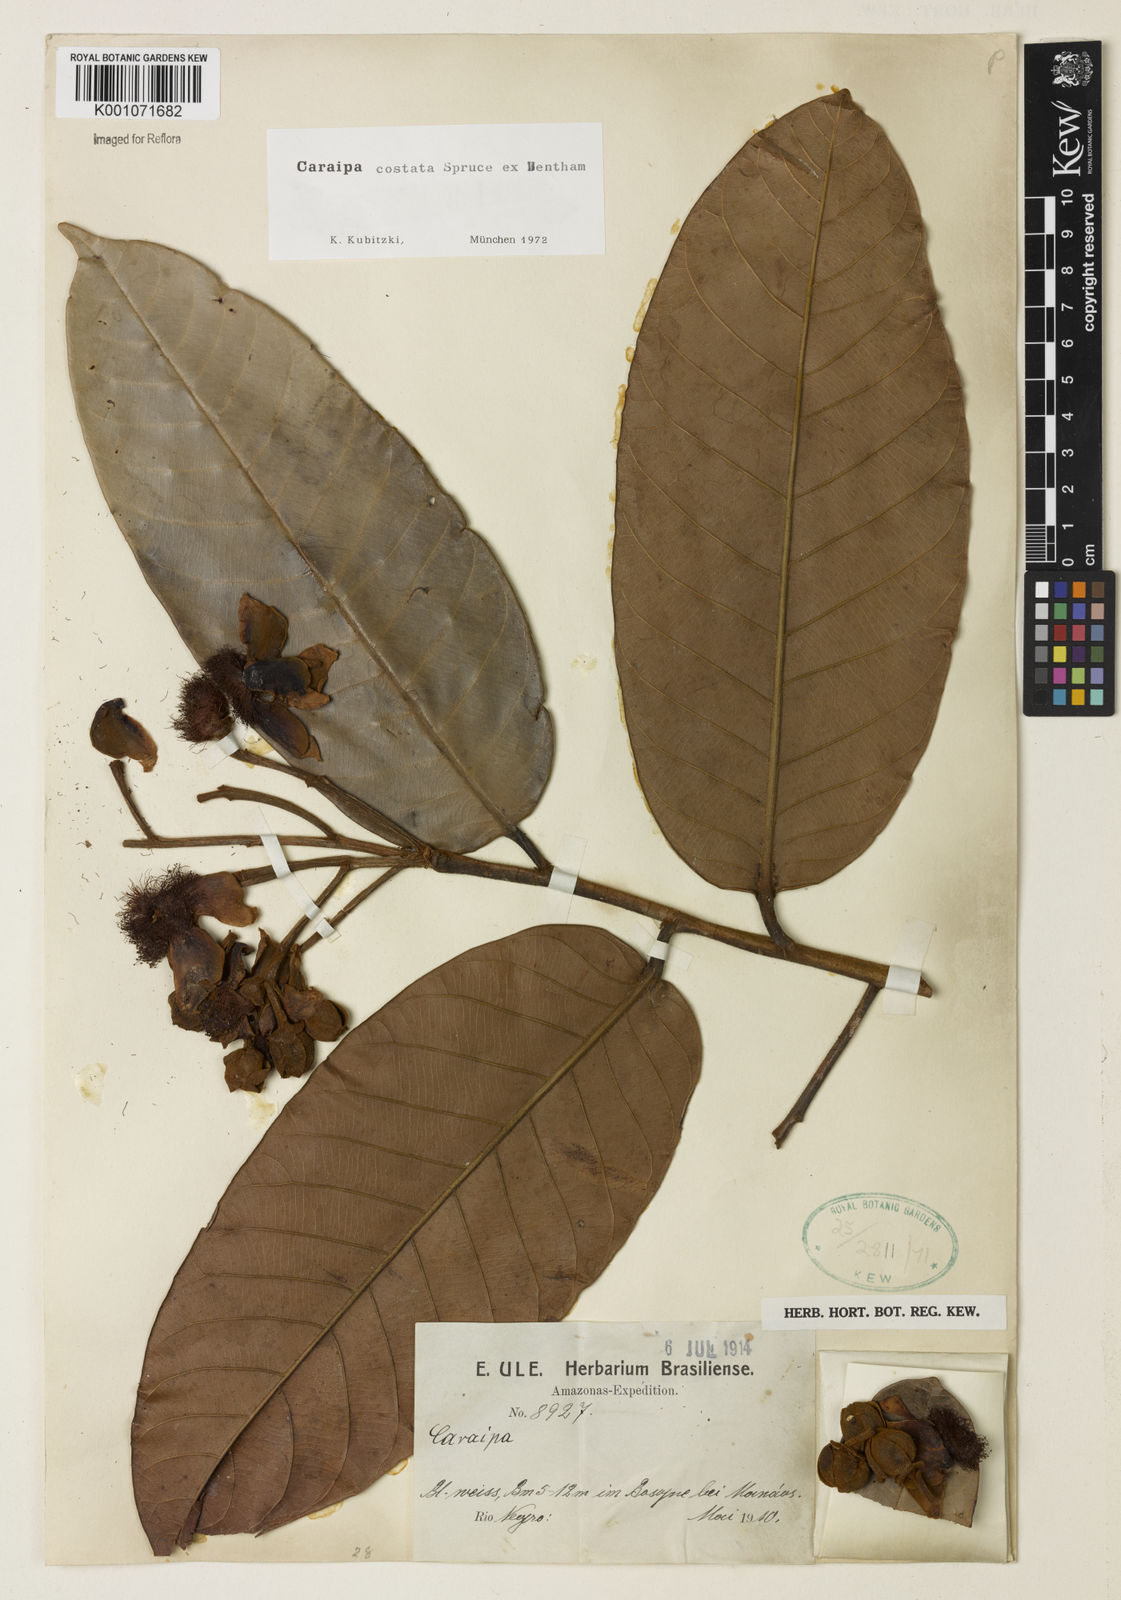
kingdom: Plantae
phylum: Tracheophyta
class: Magnoliopsida
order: Malpighiales
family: Calophyllaceae
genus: Caraipa
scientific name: Caraipa costata
